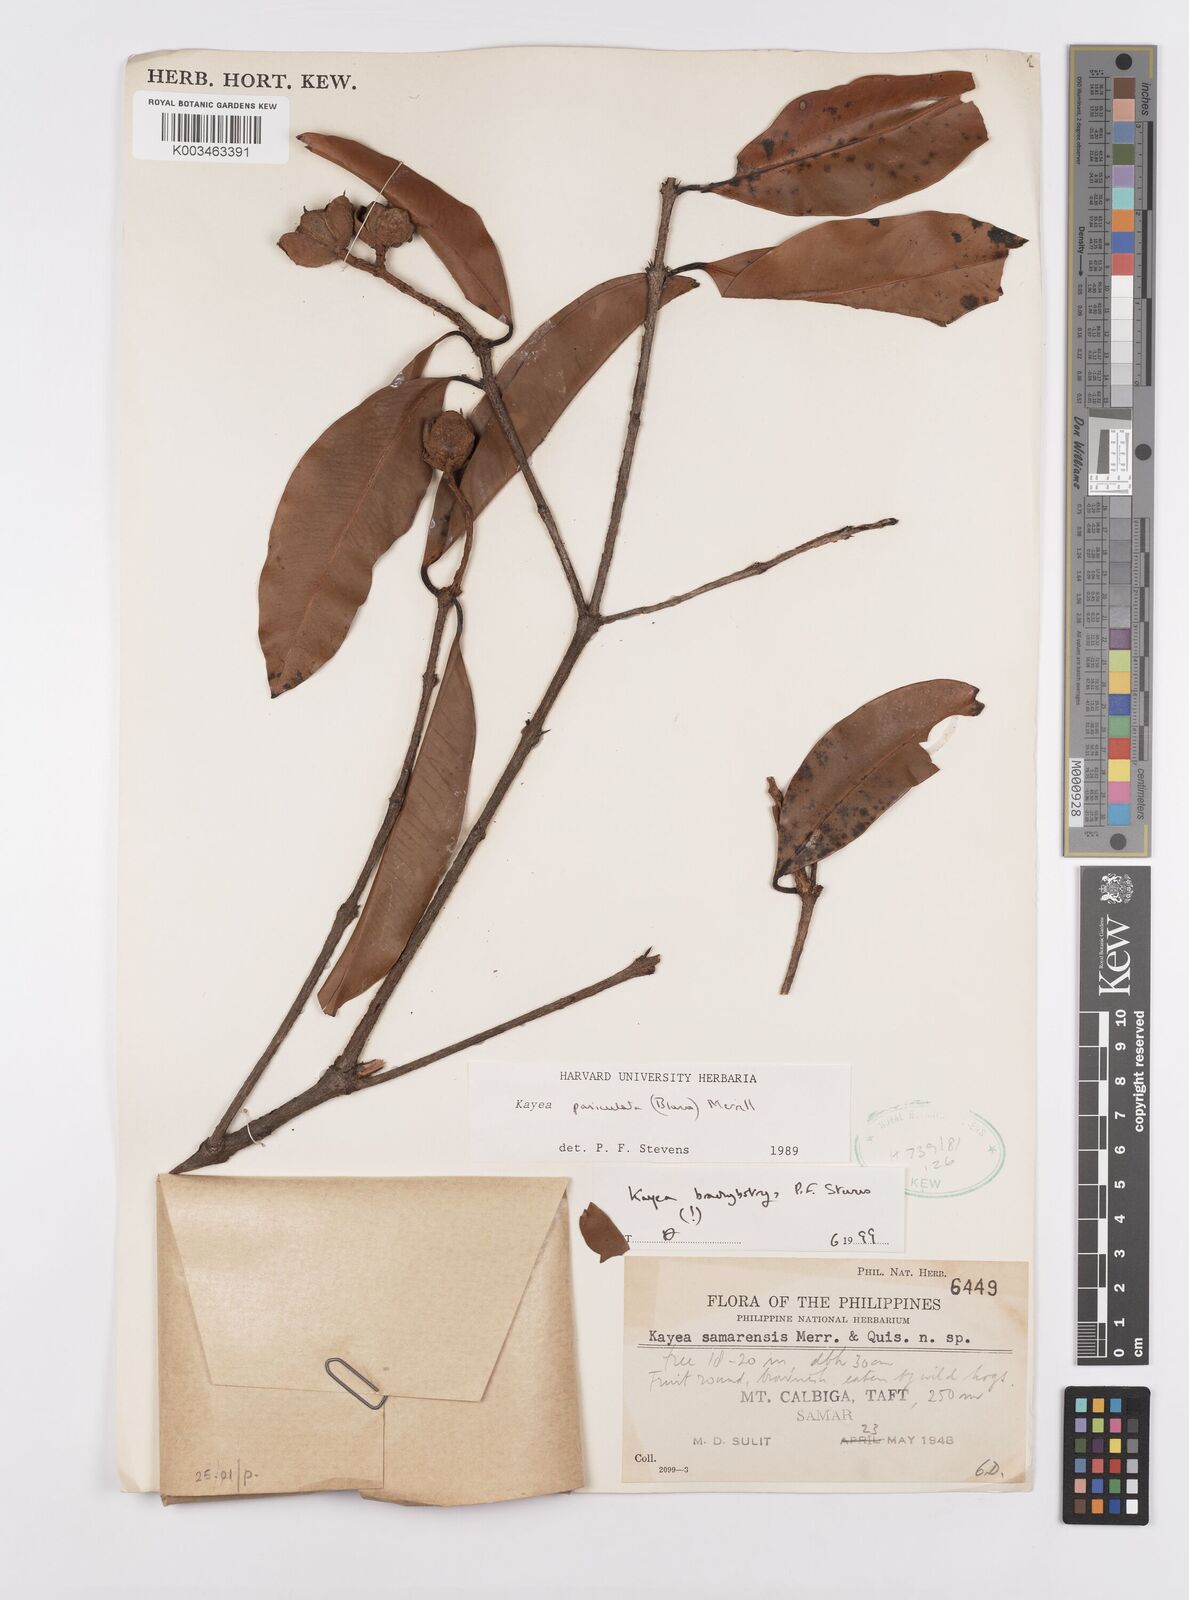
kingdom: Plantae
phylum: Tracheophyta
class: Magnoliopsida
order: Malpighiales
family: Calophyllaceae
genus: Kayea
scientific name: Kayea
